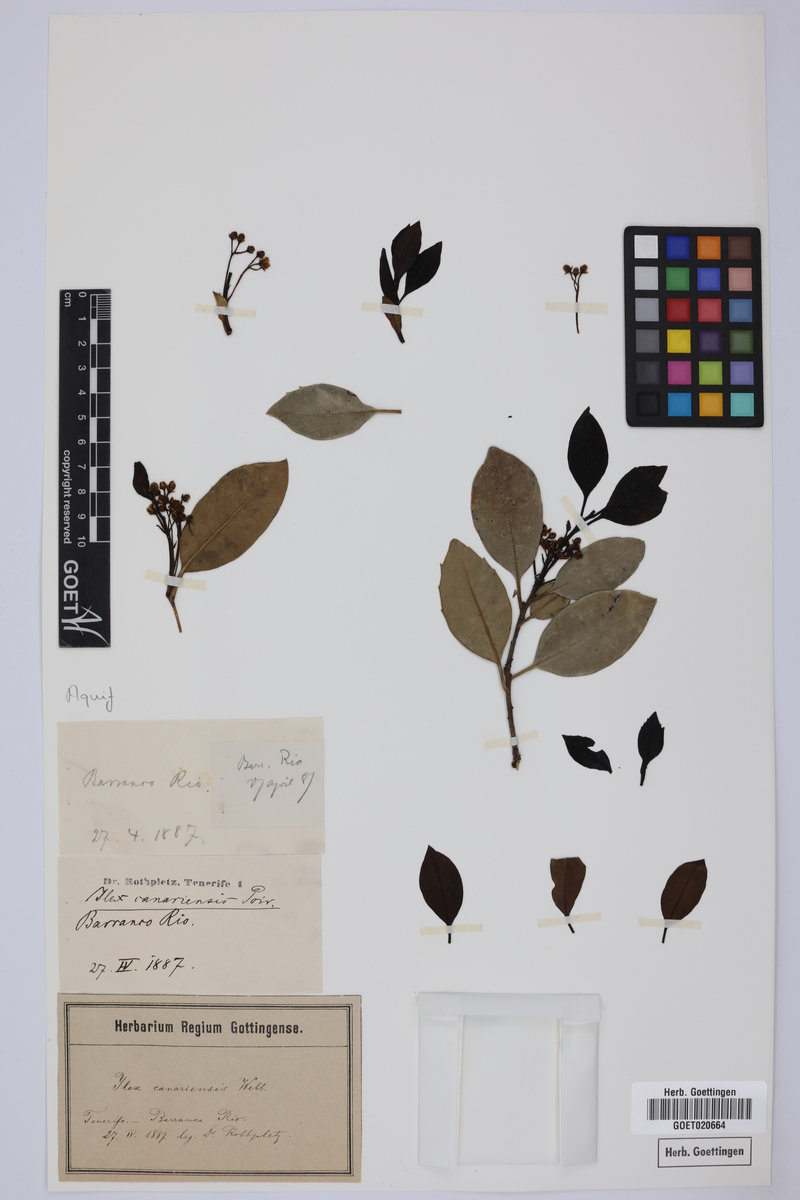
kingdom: Plantae
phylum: Tracheophyta
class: Magnoliopsida
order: Aquifoliales
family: Aquifoliaceae
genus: Ilex
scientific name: Ilex canariensis
